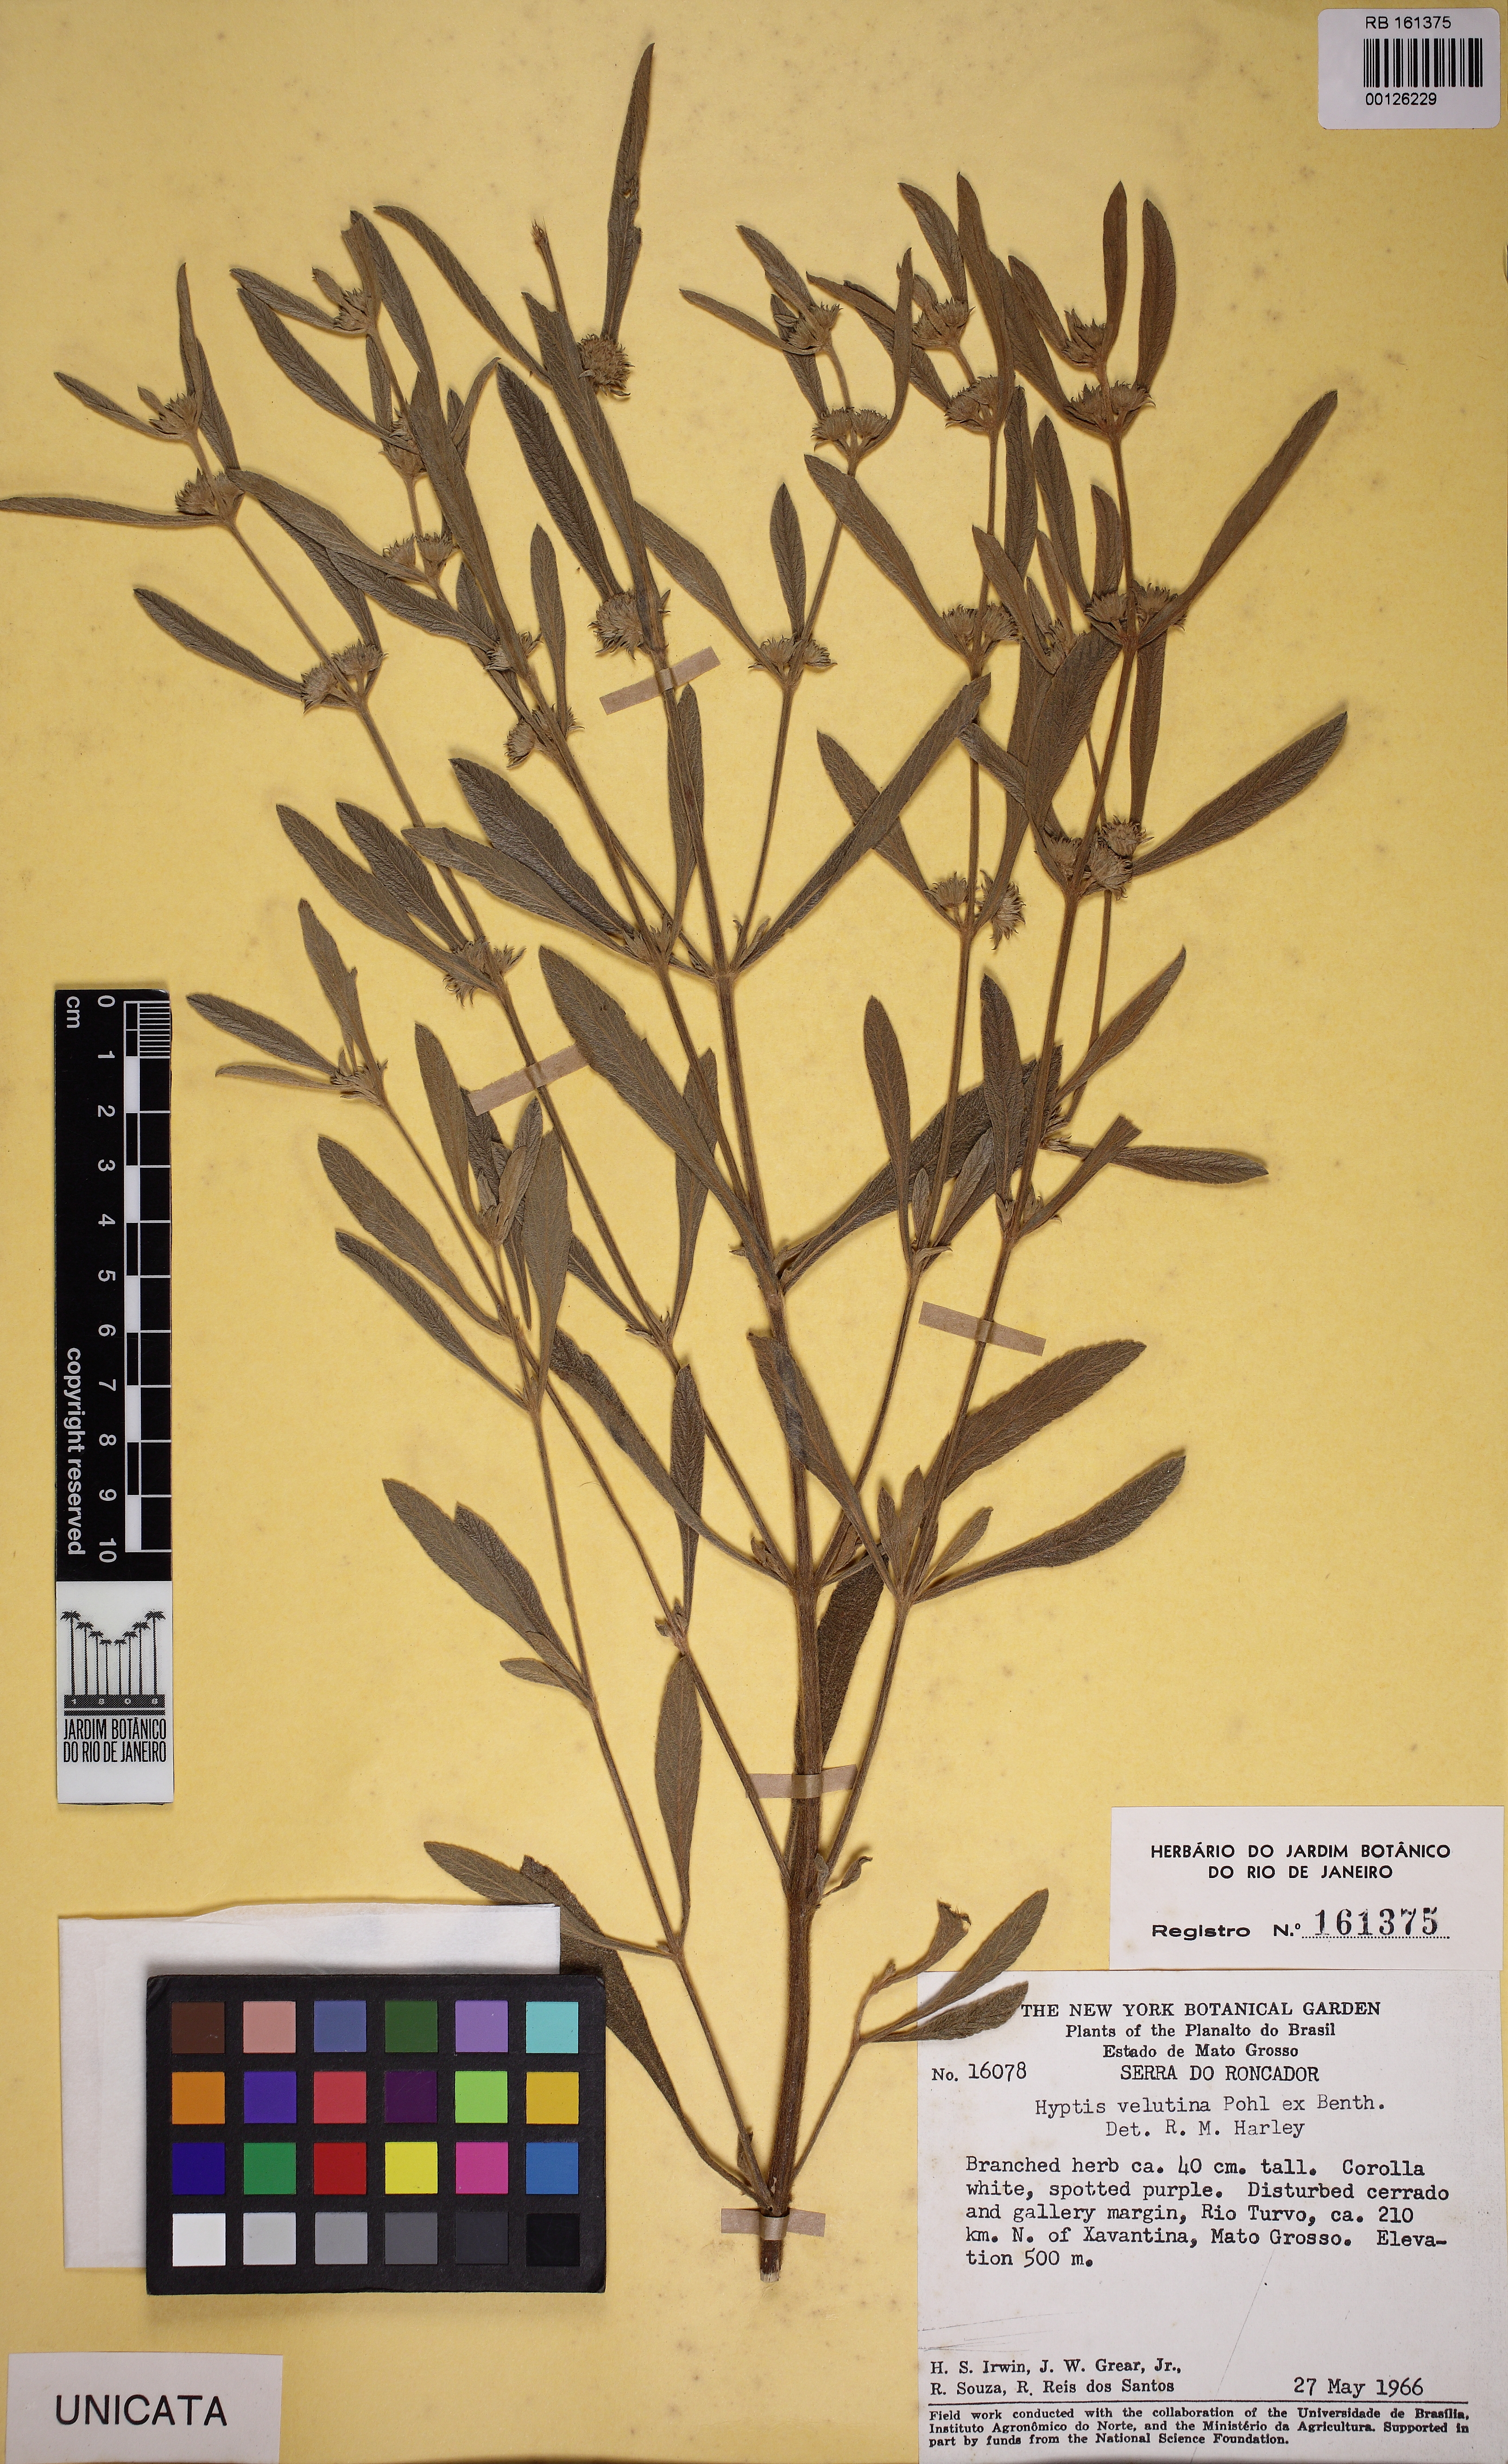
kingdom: Plantae
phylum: Tracheophyta
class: Magnoliopsida
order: Lamiales
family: Lamiaceae
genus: Hyptis
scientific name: Hyptis velutina
